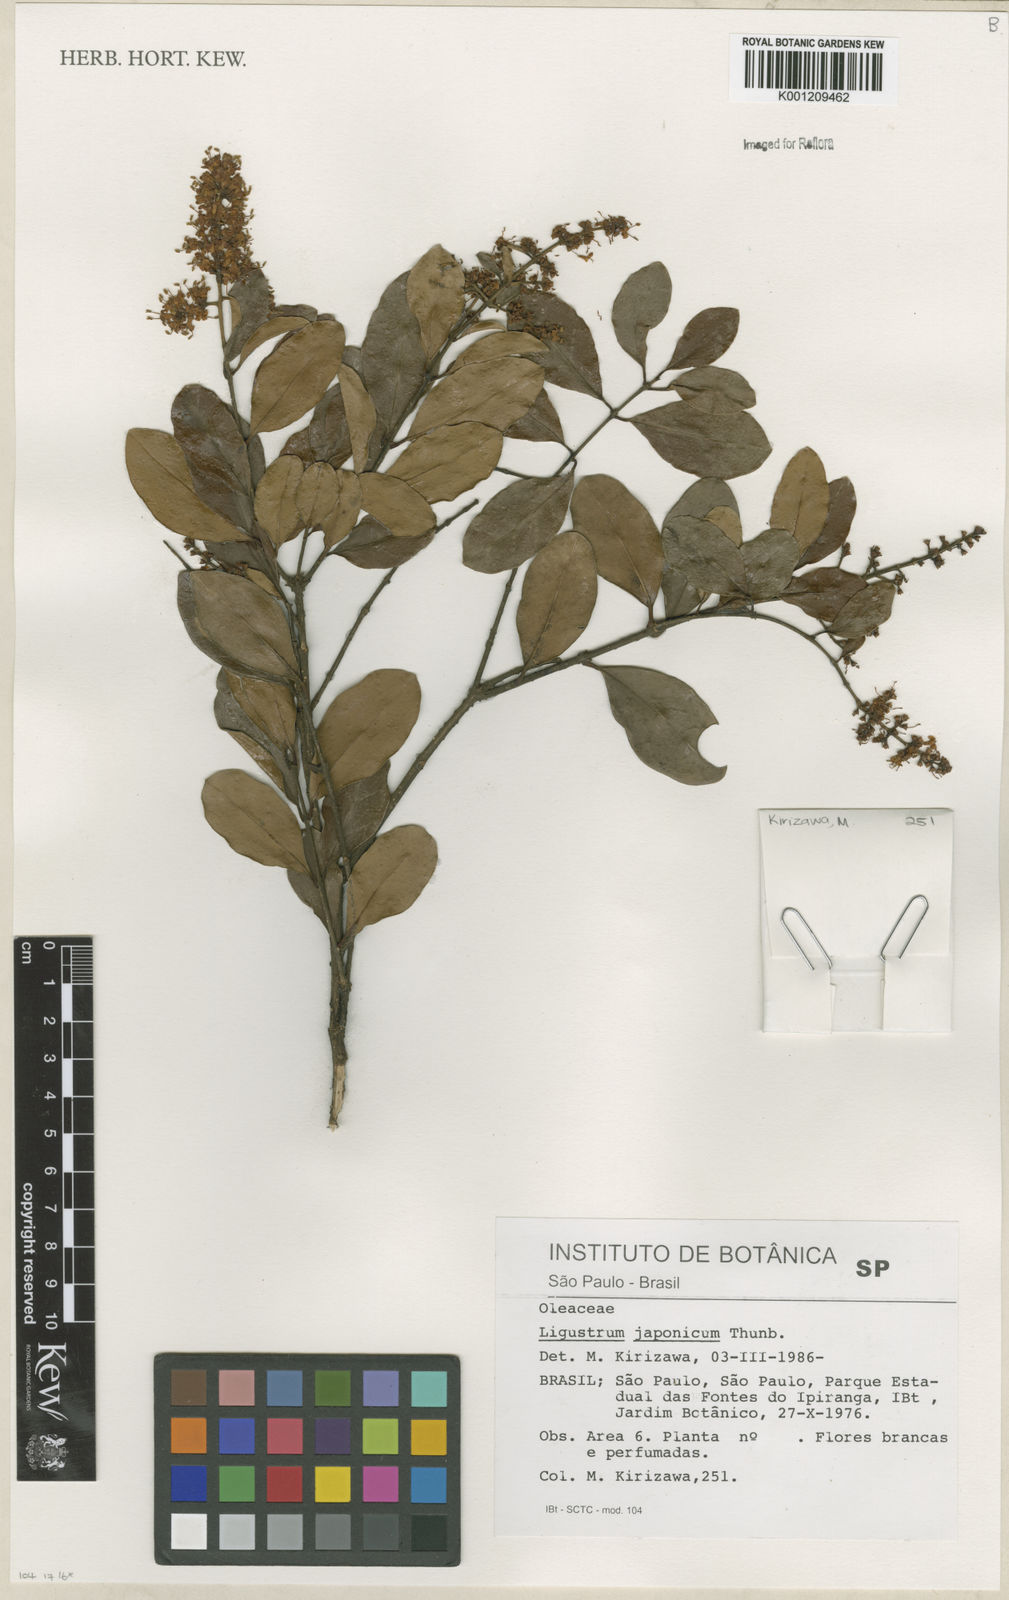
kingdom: Plantae
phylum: Tracheophyta
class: Magnoliopsida
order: Lamiales
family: Oleaceae
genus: Ligustrum
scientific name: Ligustrum japonicum
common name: Japanese privet
